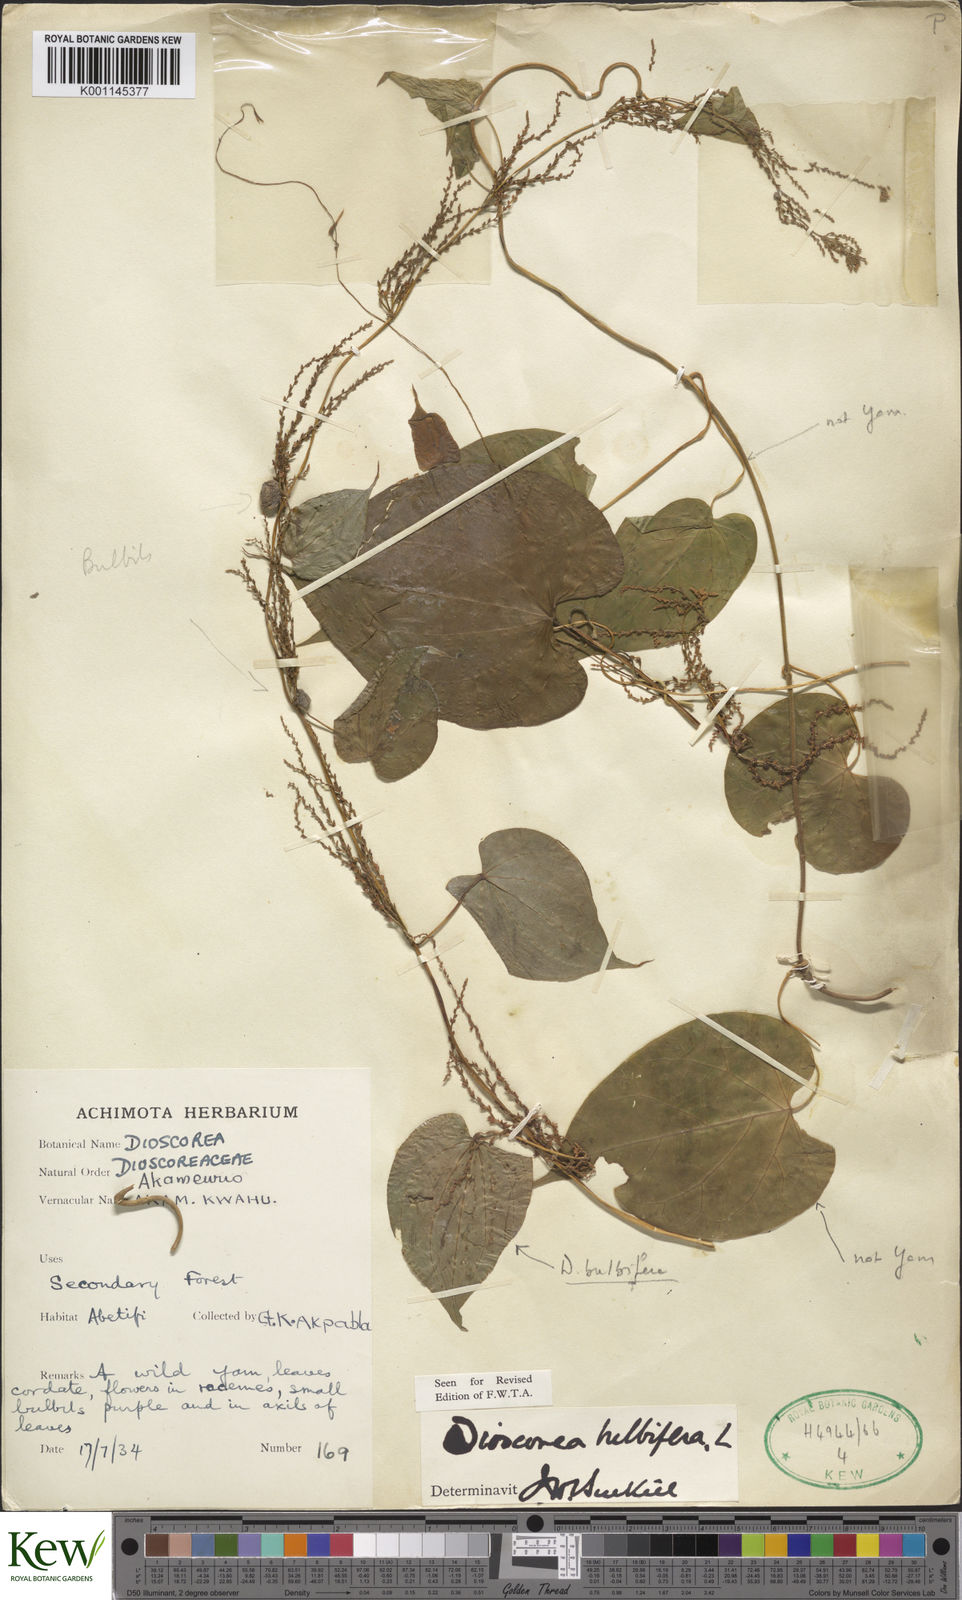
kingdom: Plantae
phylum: Tracheophyta
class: Liliopsida
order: Dioscoreales
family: Dioscoreaceae
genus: Dioscorea
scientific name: Dioscorea bulbifera
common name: Air yam
